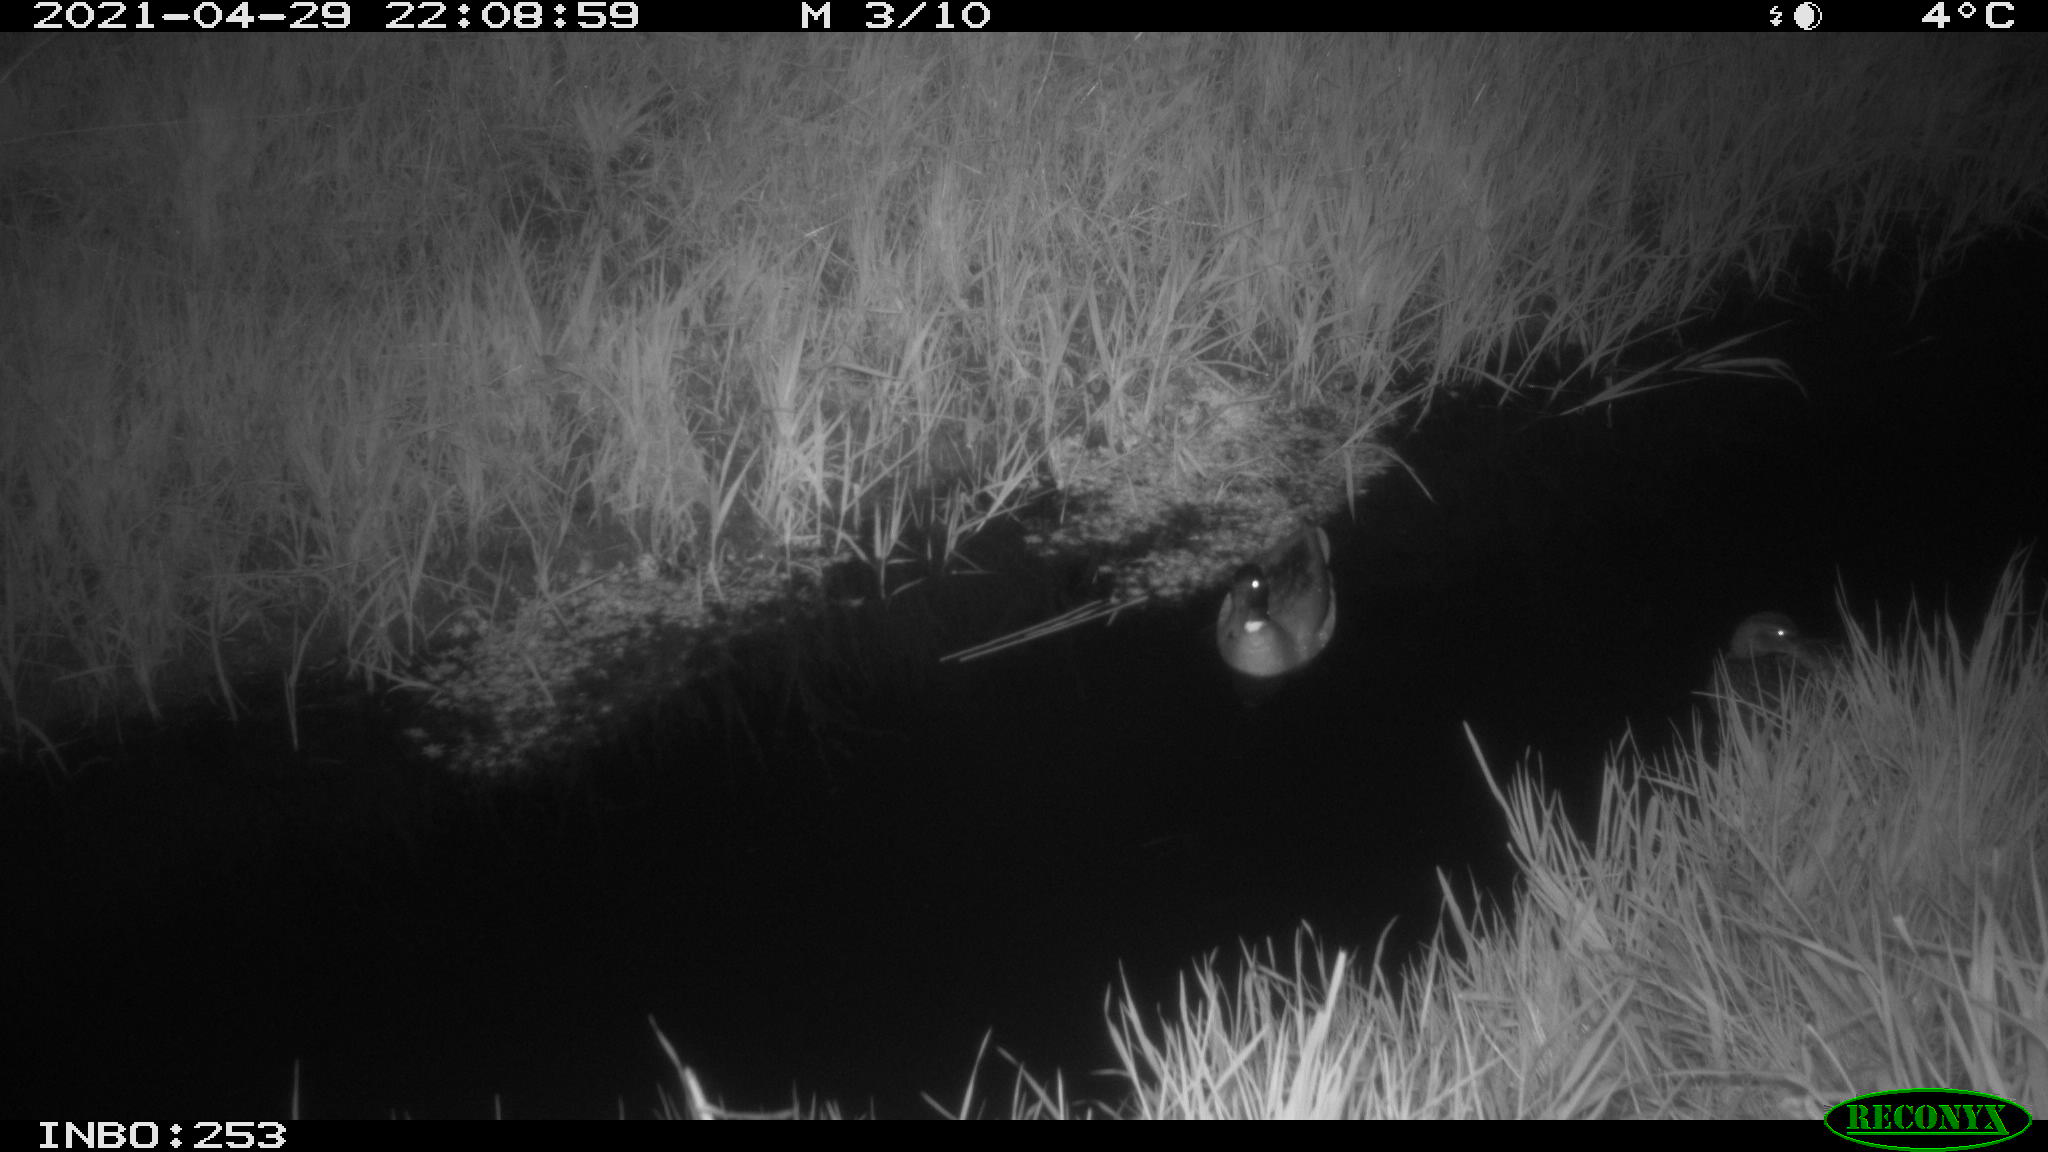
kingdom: Animalia
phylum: Chordata
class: Aves
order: Anseriformes
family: Anatidae
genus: Anas
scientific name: Anas platyrhynchos
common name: Mallard
